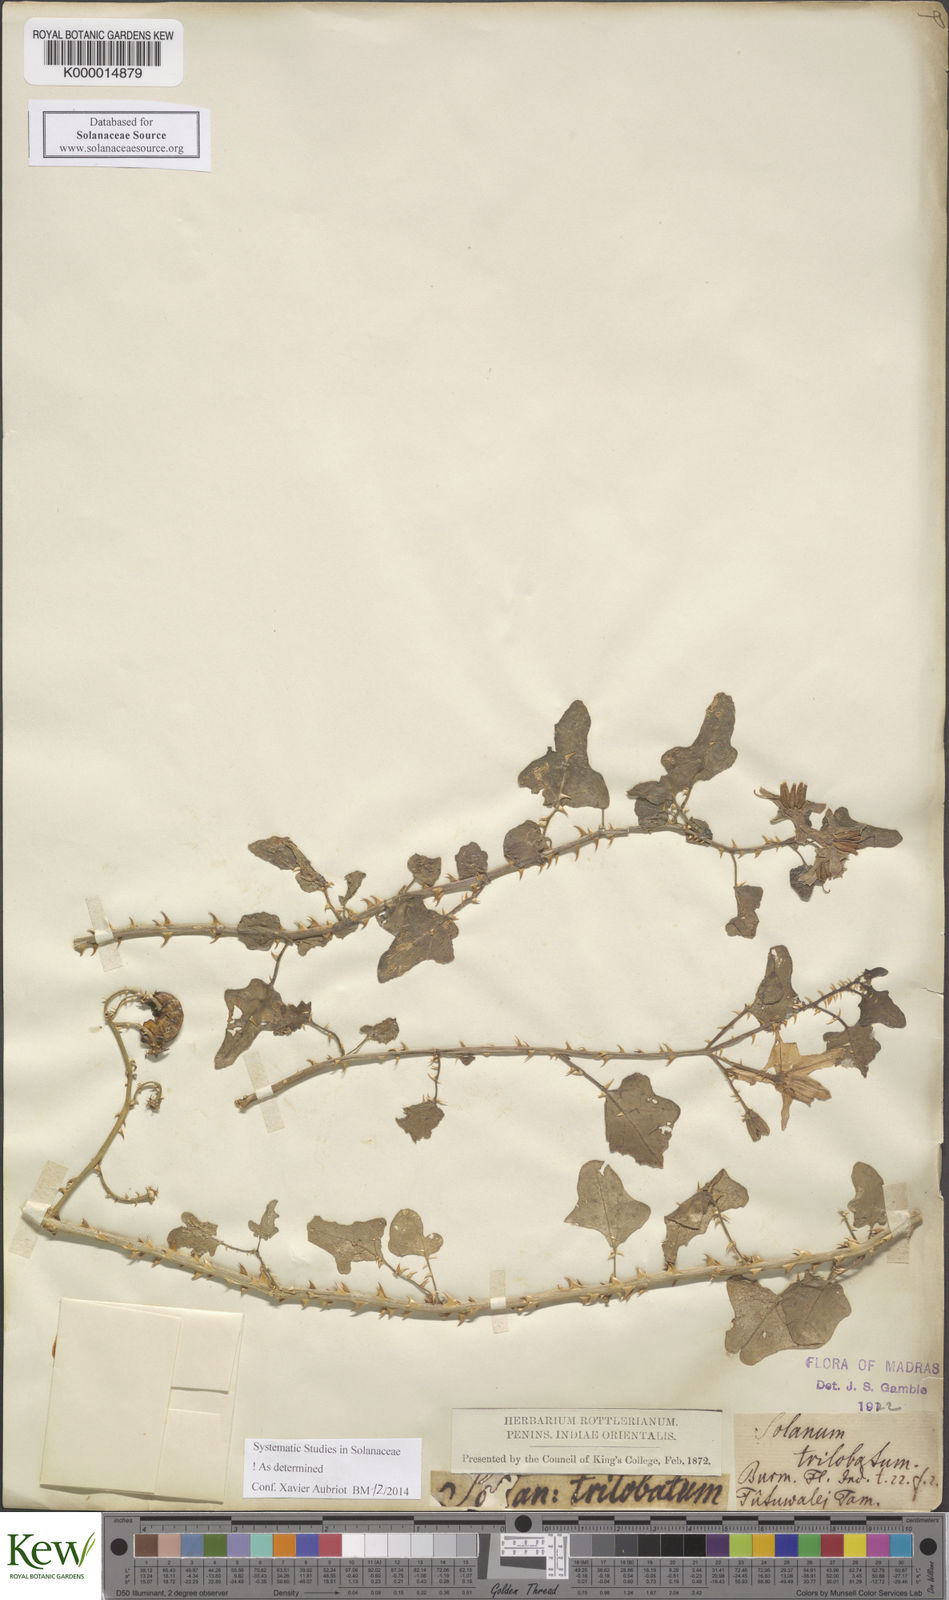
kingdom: Plantae
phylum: Tracheophyta
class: Magnoliopsida
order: Solanales
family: Solanaceae
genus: Solanum
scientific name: Solanum trilobatum
